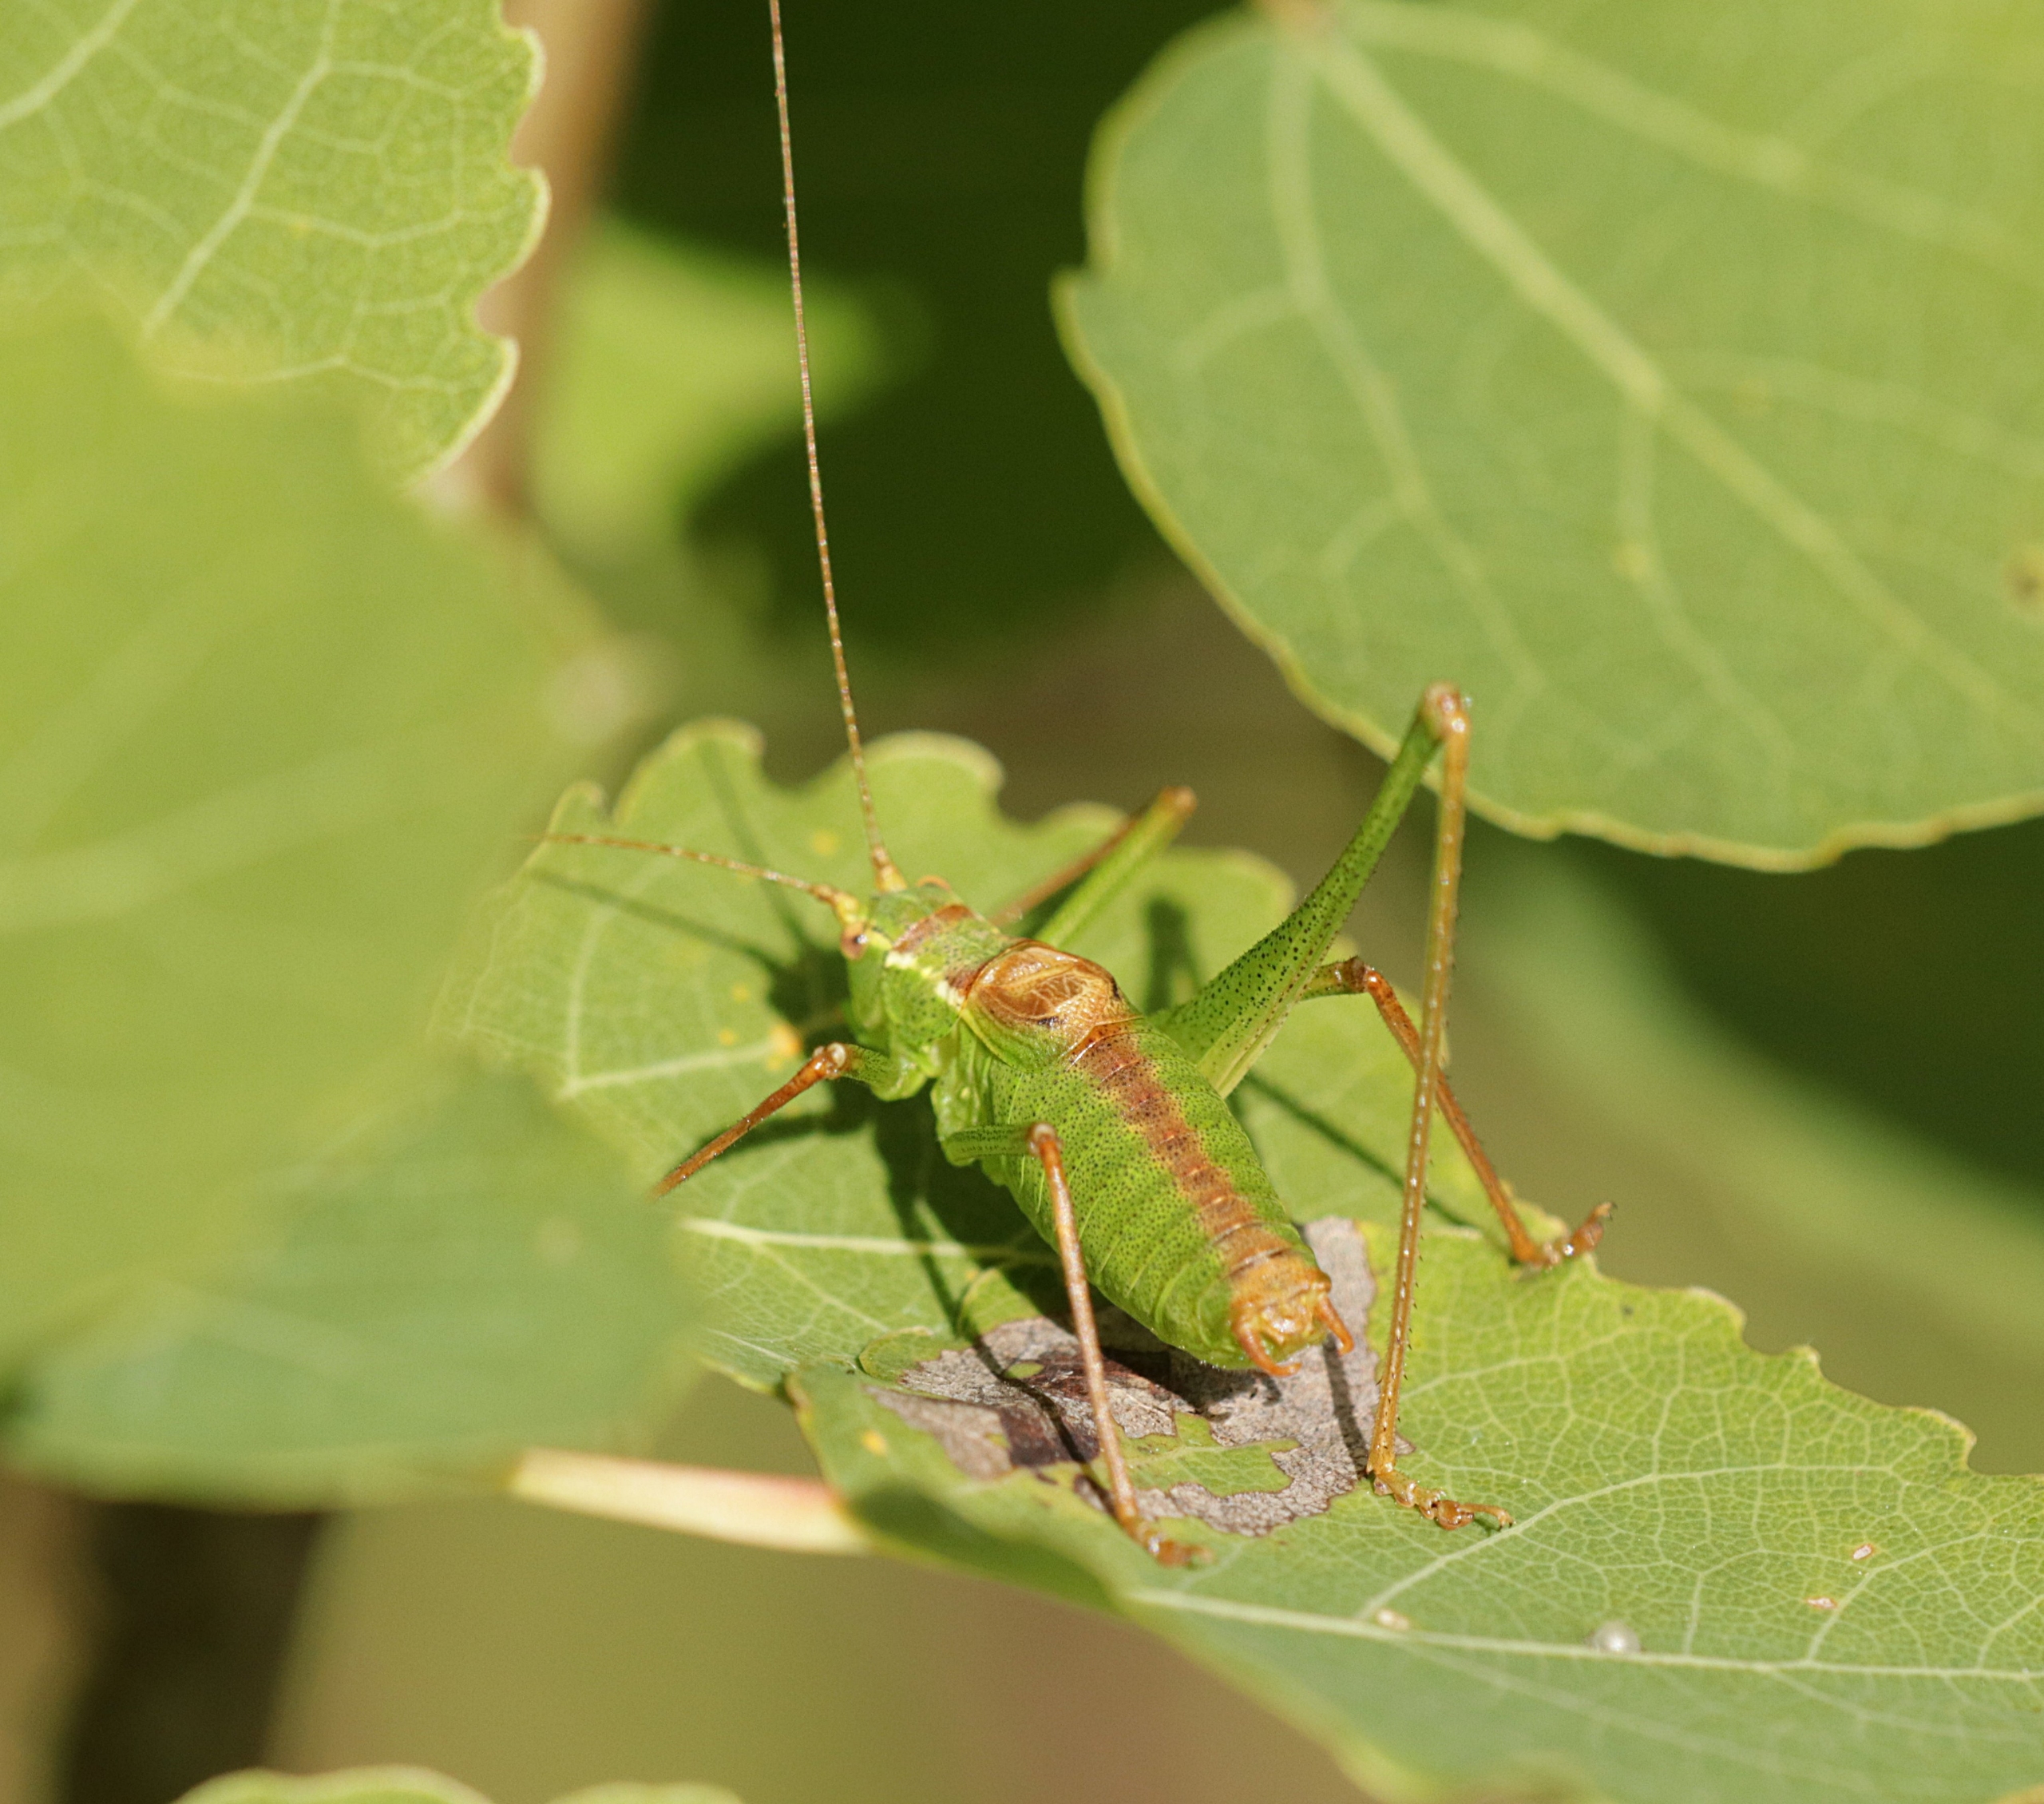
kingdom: Animalia
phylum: Arthropoda
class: Insecta
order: Orthoptera
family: Tettigoniidae
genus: Leptophyes
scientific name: Leptophyes punctatissima
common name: Krumknivgræshoppe
